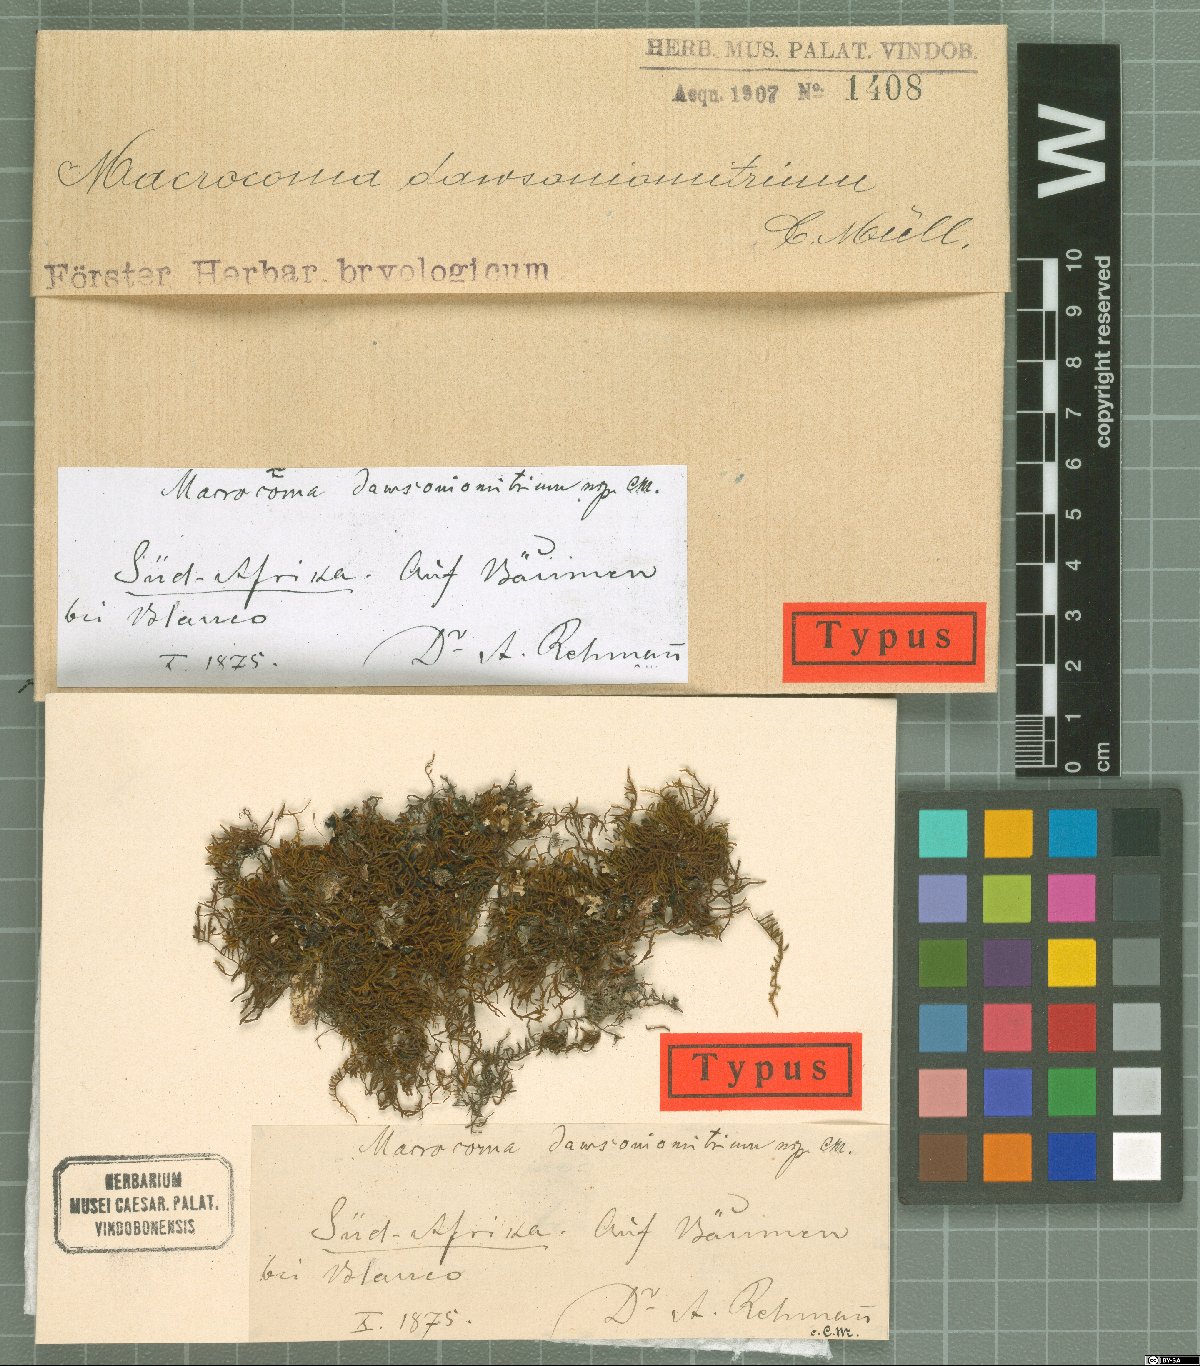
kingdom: Plantae
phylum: Bryophyta
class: Bryopsida
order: Orthotrichales
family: Orthotrichaceae
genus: Macrocoma
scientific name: Macrocoma
